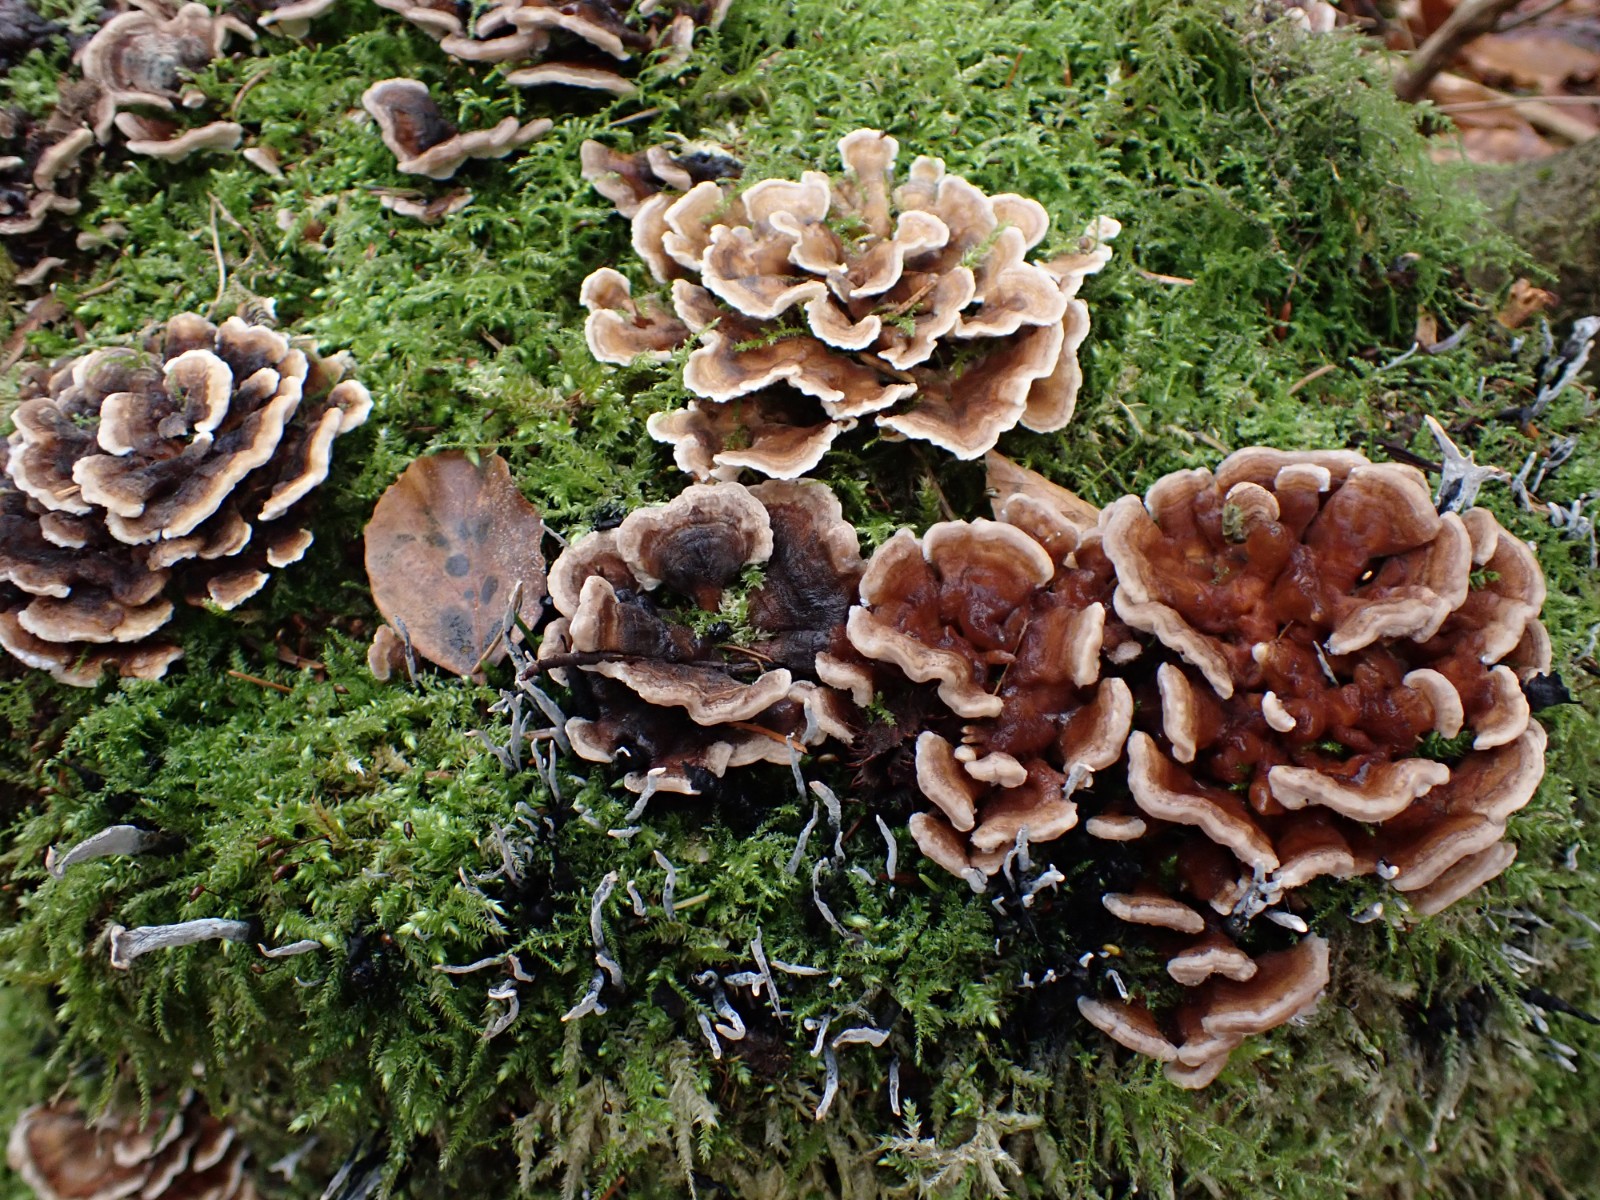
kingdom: Fungi
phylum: Basidiomycota
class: Agaricomycetes
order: Polyporales
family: Polyporaceae
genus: Trametes
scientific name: Trametes versicolor
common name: broget læderporesvamp
